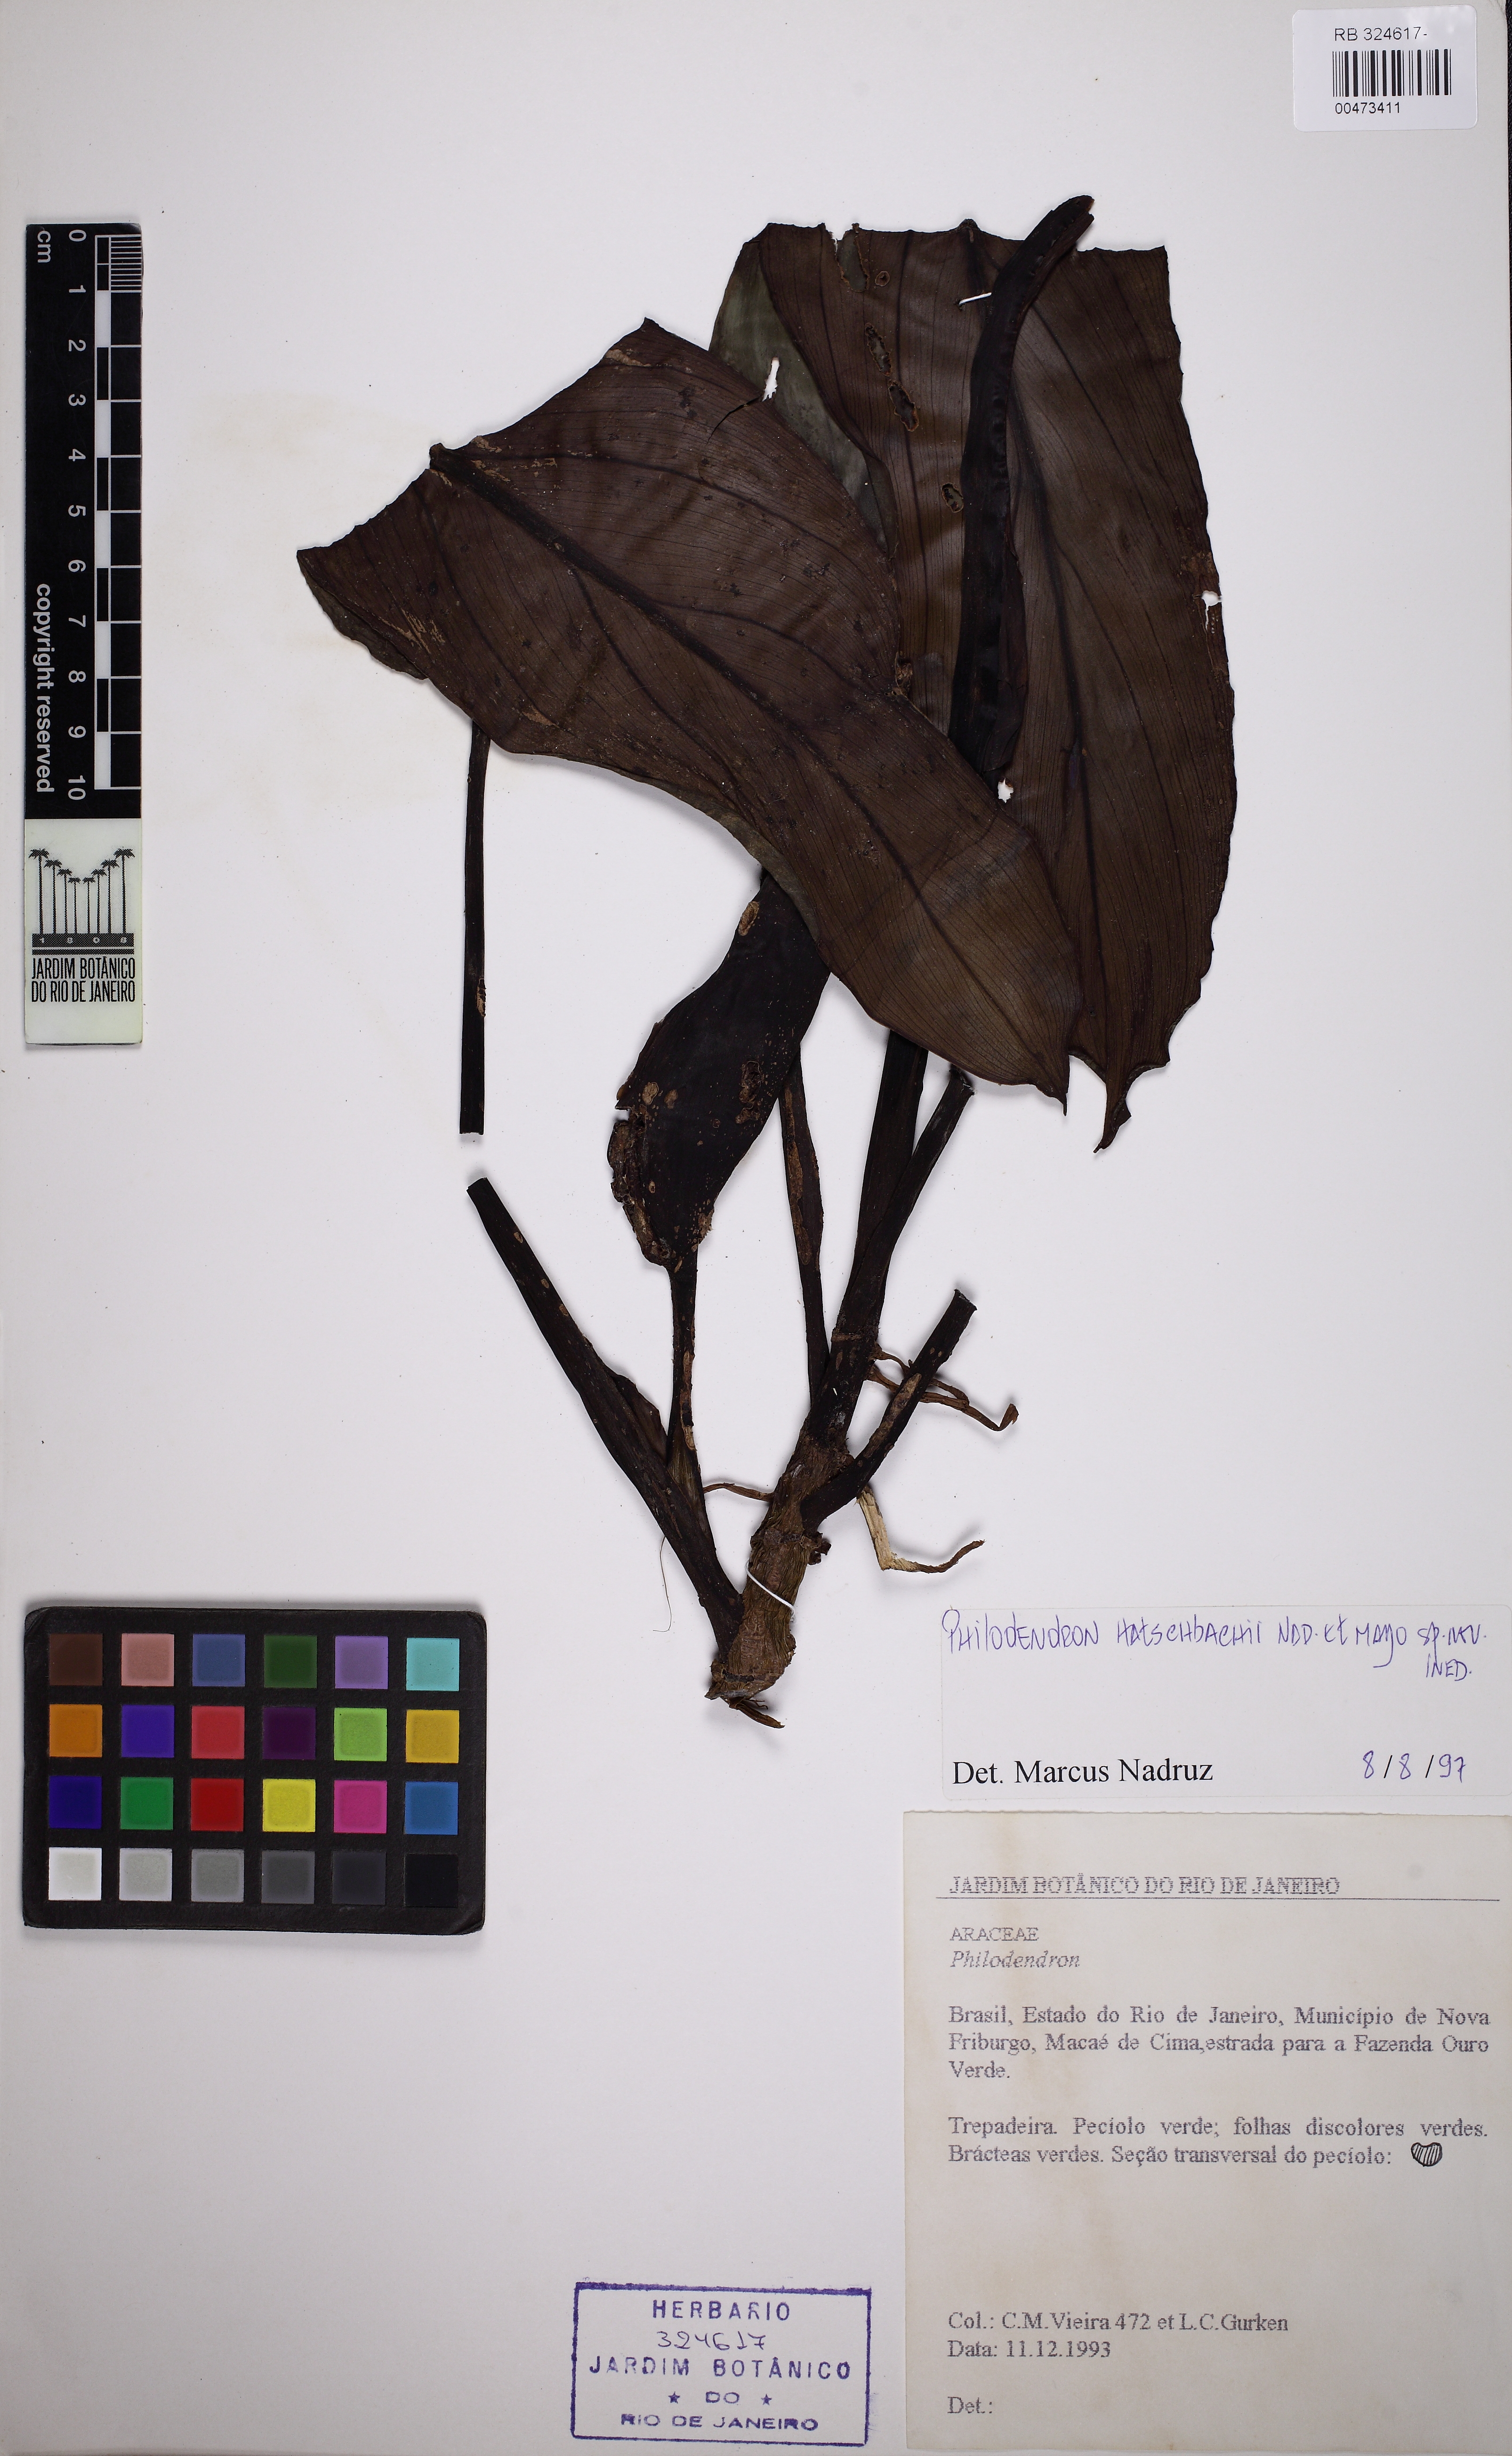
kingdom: Plantae
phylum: Tracheophyta
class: Liliopsida
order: Alismatales
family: Araceae
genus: Philodendron
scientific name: Philodendron hatschbachii
